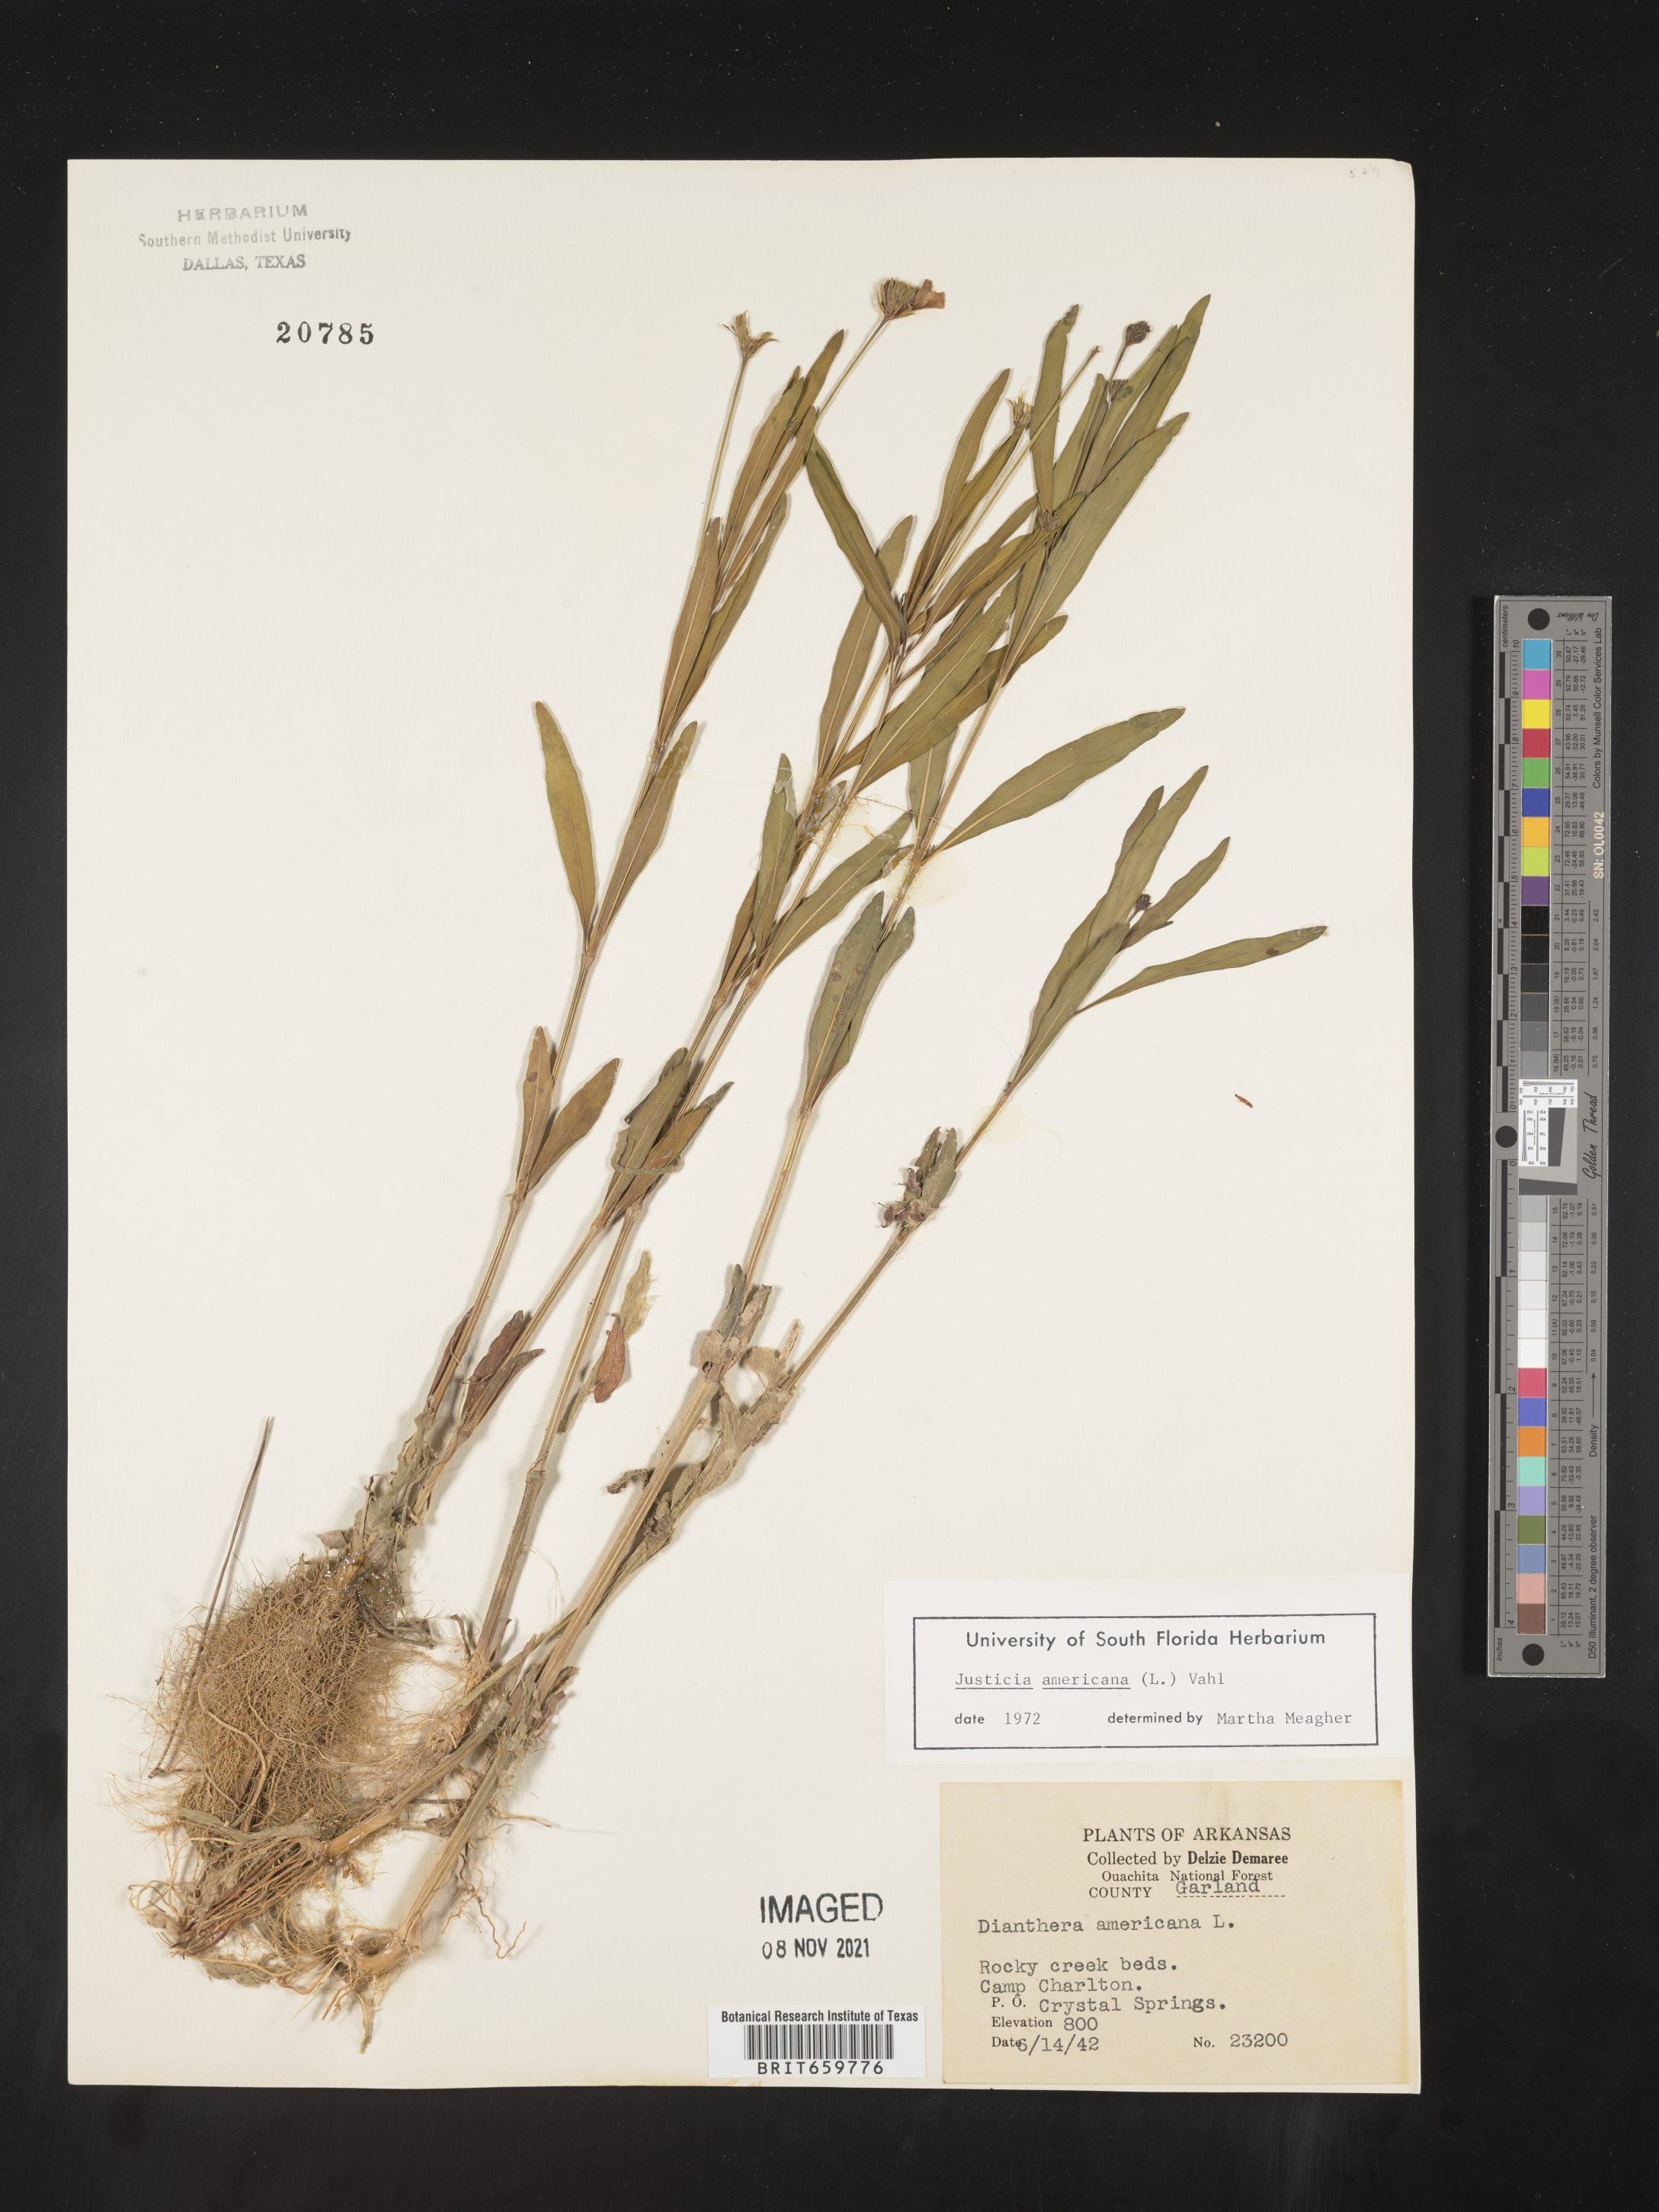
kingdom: Plantae
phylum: Tracheophyta
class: Magnoliopsida
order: Lamiales
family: Acanthaceae
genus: Dianthera
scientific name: Dianthera americana
